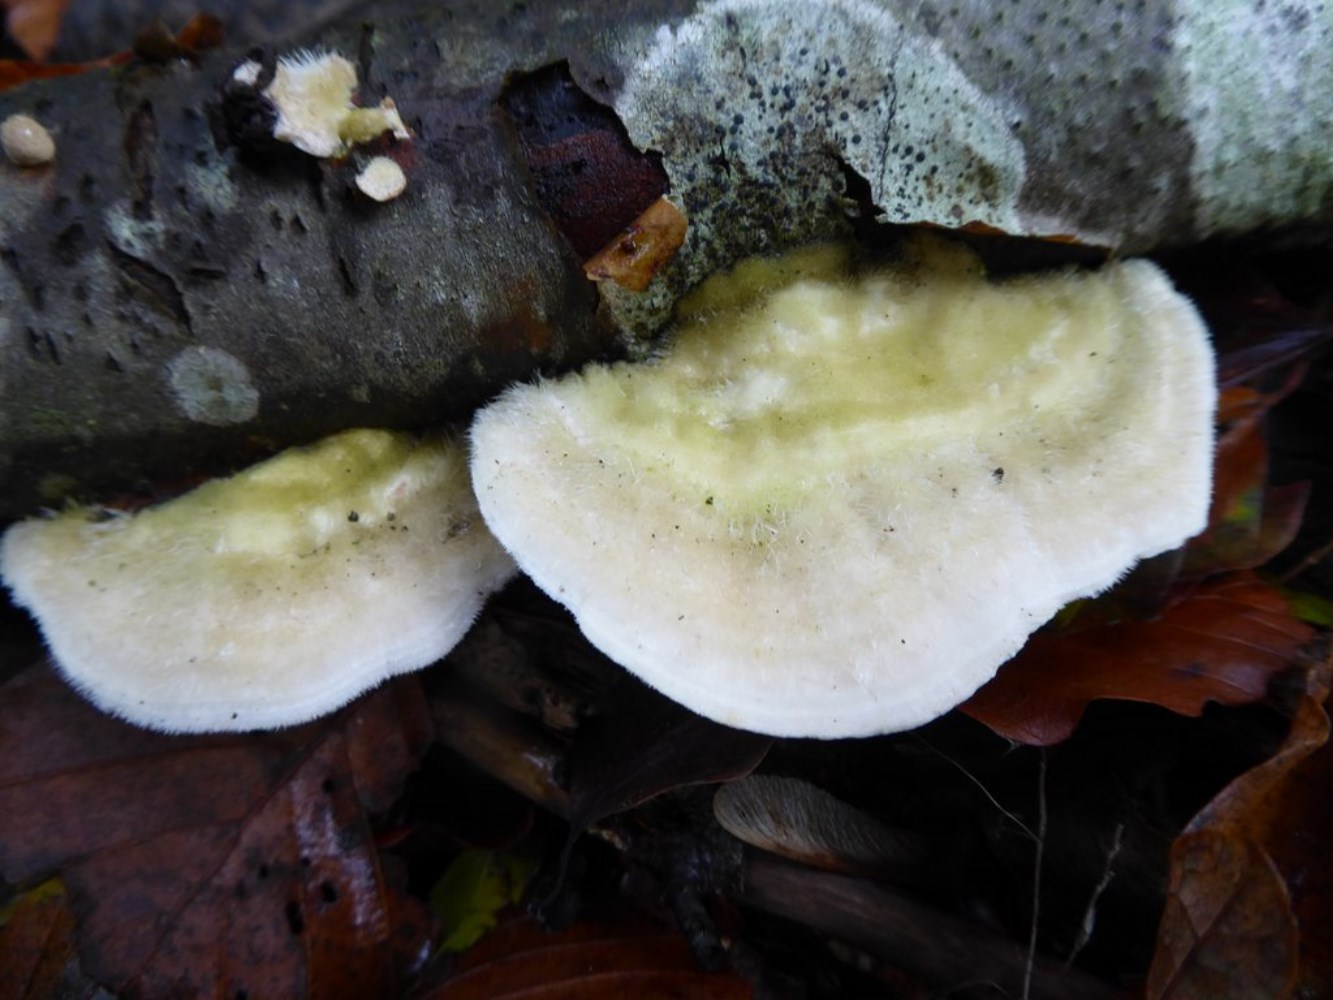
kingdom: Fungi
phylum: Basidiomycota
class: Agaricomycetes
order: Polyporales
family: Polyporaceae
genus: Trametes
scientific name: Trametes hirsuta
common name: håret læderporesvamp
